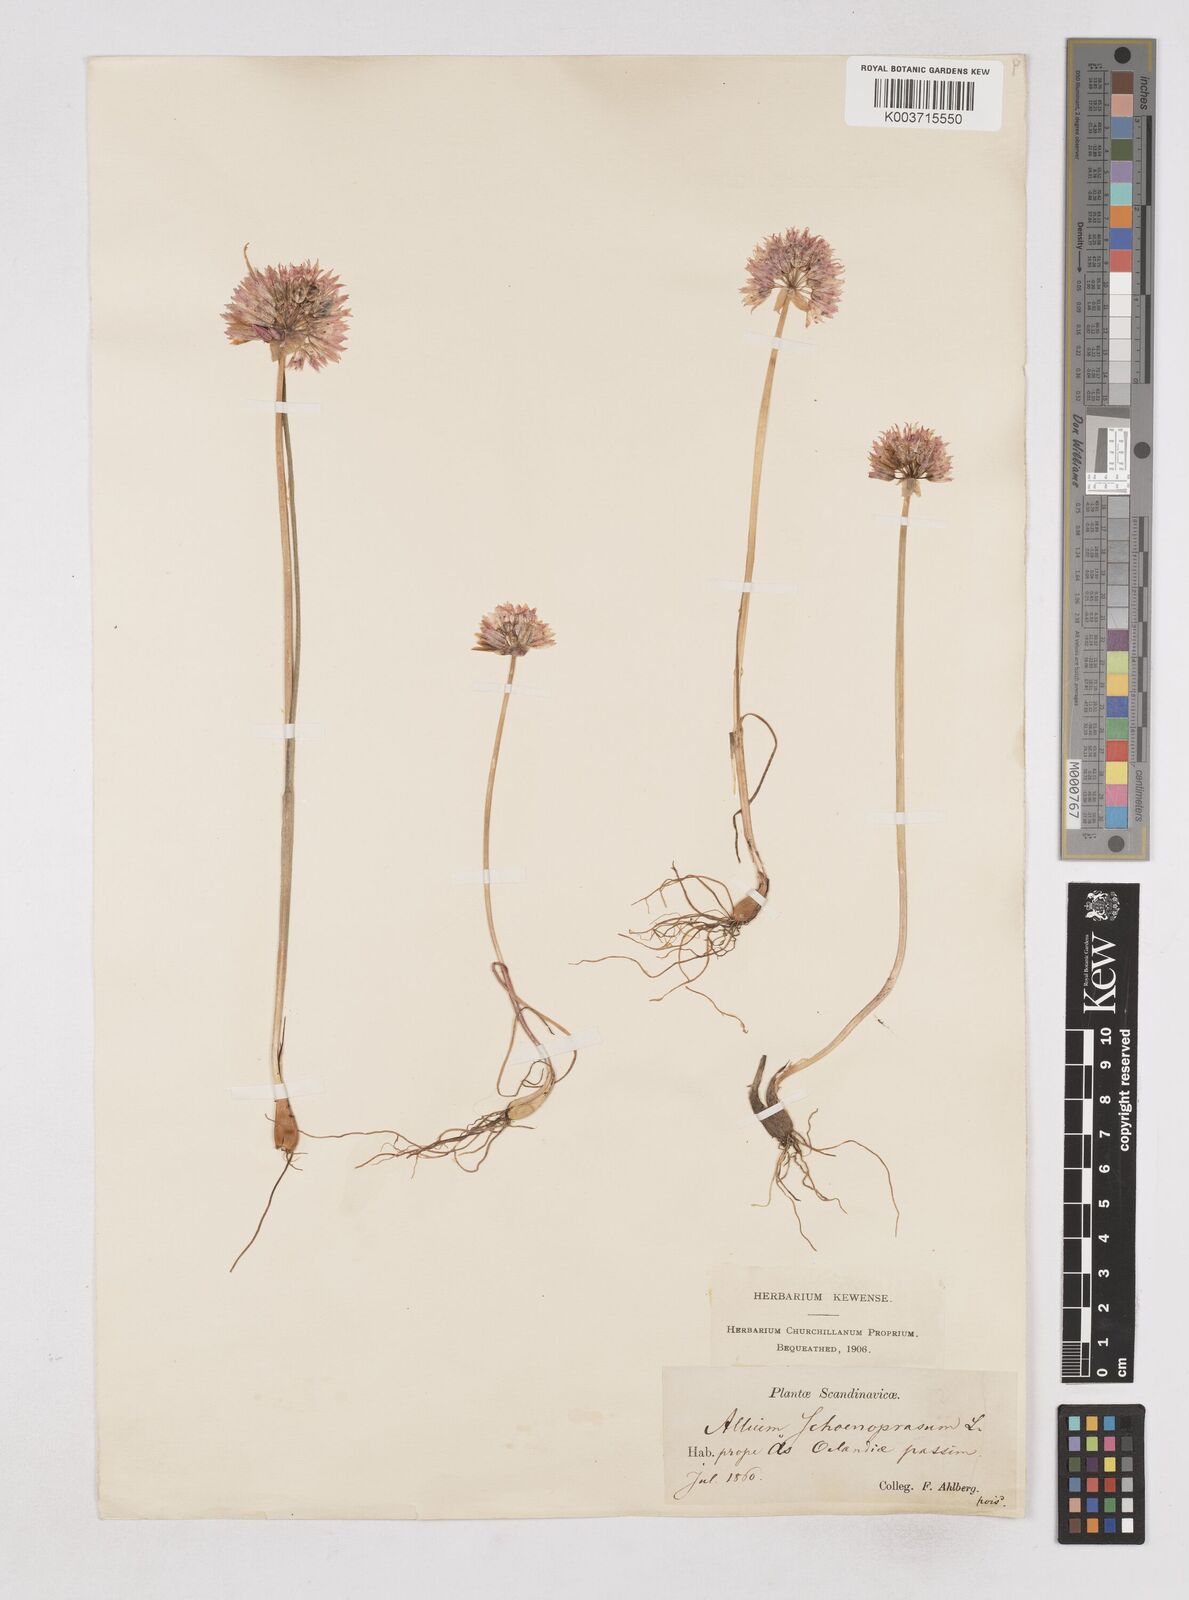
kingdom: Plantae
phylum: Tracheophyta
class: Liliopsida
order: Asparagales
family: Amaryllidaceae
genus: Allium
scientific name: Allium schoenoprasum
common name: Chives
